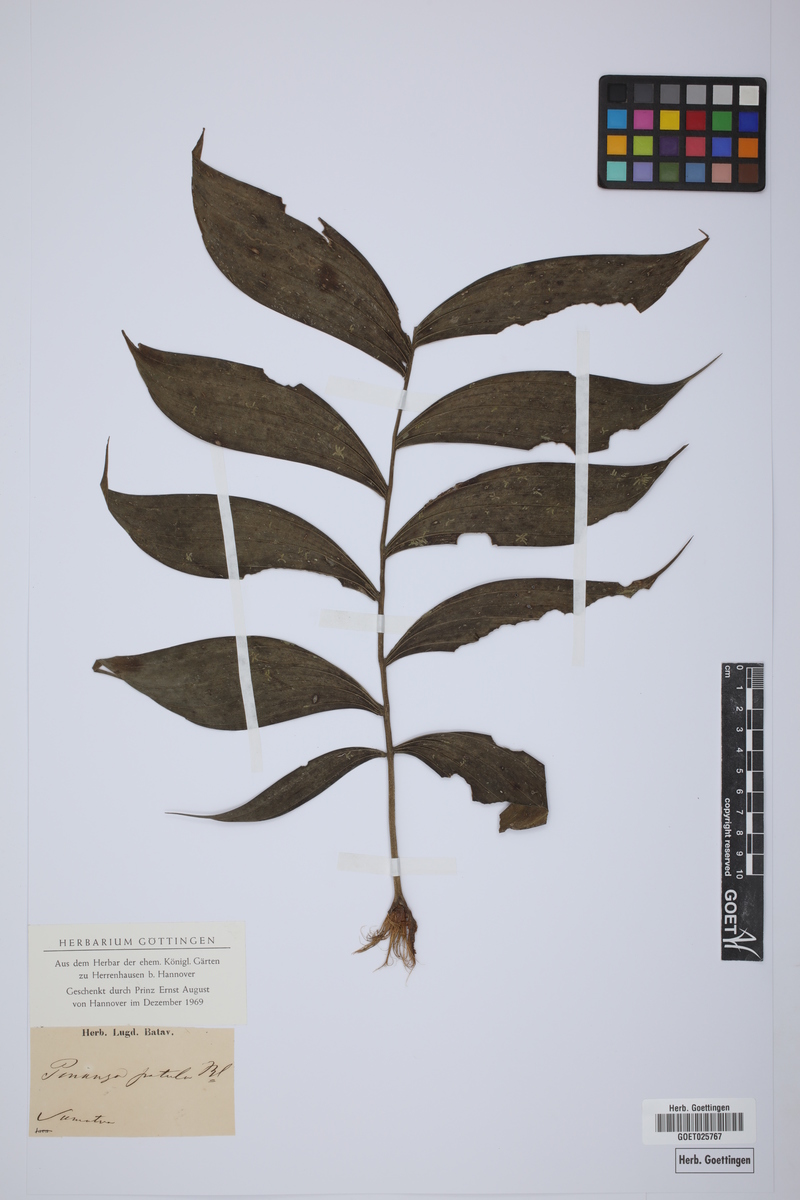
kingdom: Plantae
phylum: Tracheophyta
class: Liliopsida
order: Arecales
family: Arecaceae
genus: Pinanga
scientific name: Pinanga patula
